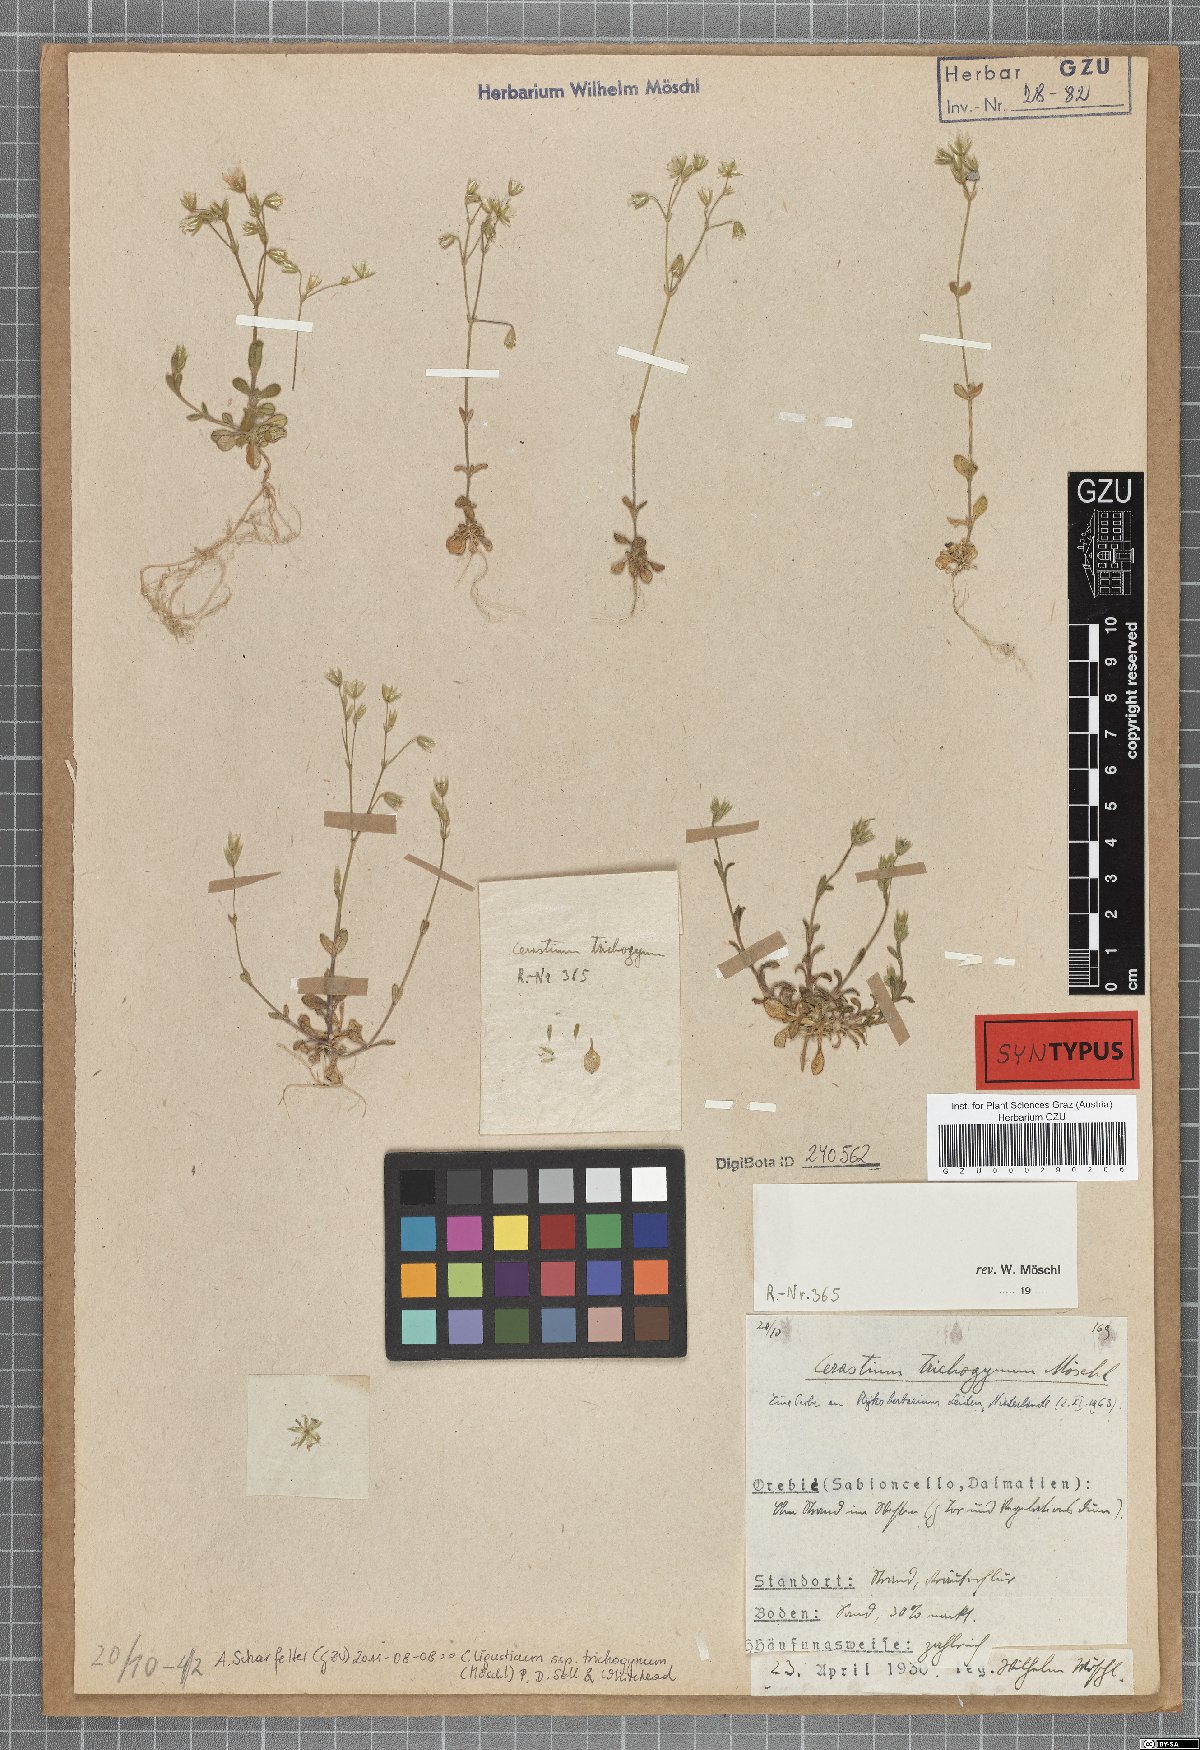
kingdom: Plantae
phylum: Tracheophyta
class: Magnoliopsida
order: Caryophyllales
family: Caryophyllaceae
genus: Cerastium
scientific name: Cerastium ligusticum
